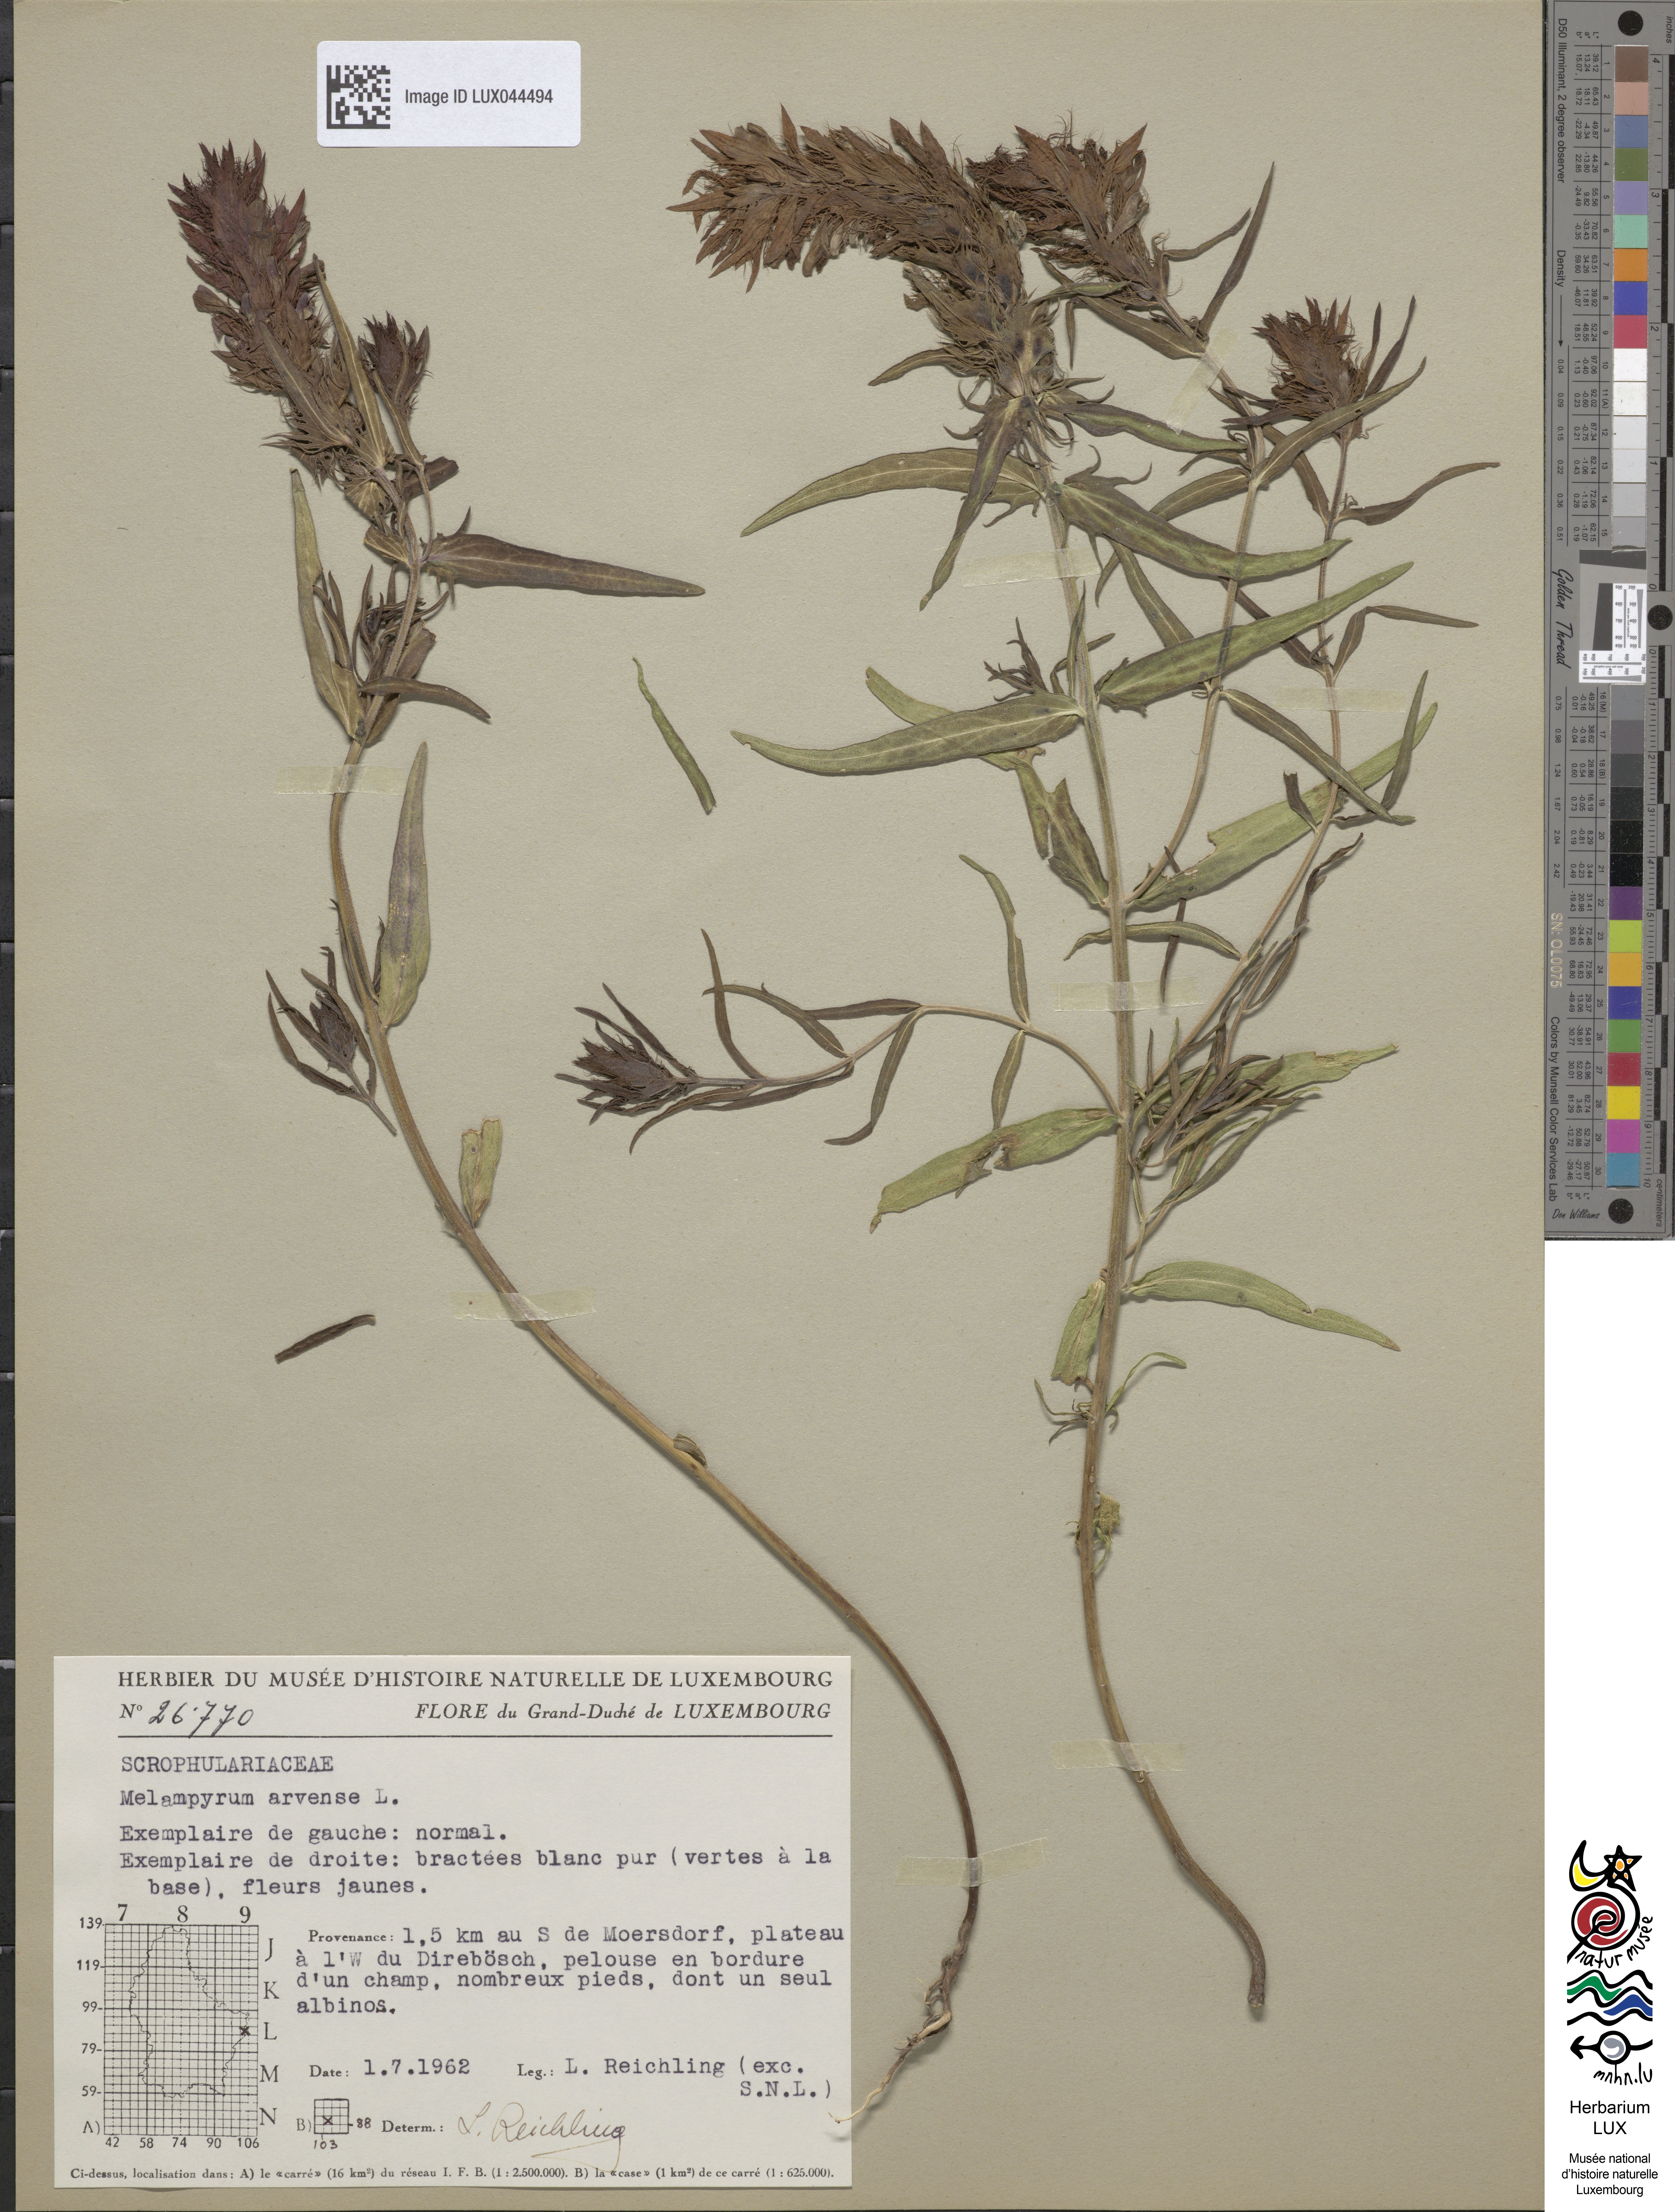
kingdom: Plantae
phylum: Tracheophyta
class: Magnoliopsida
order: Lamiales
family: Orobanchaceae
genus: Melampyrum
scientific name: Melampyrum arvense
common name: Field cow-wheat
